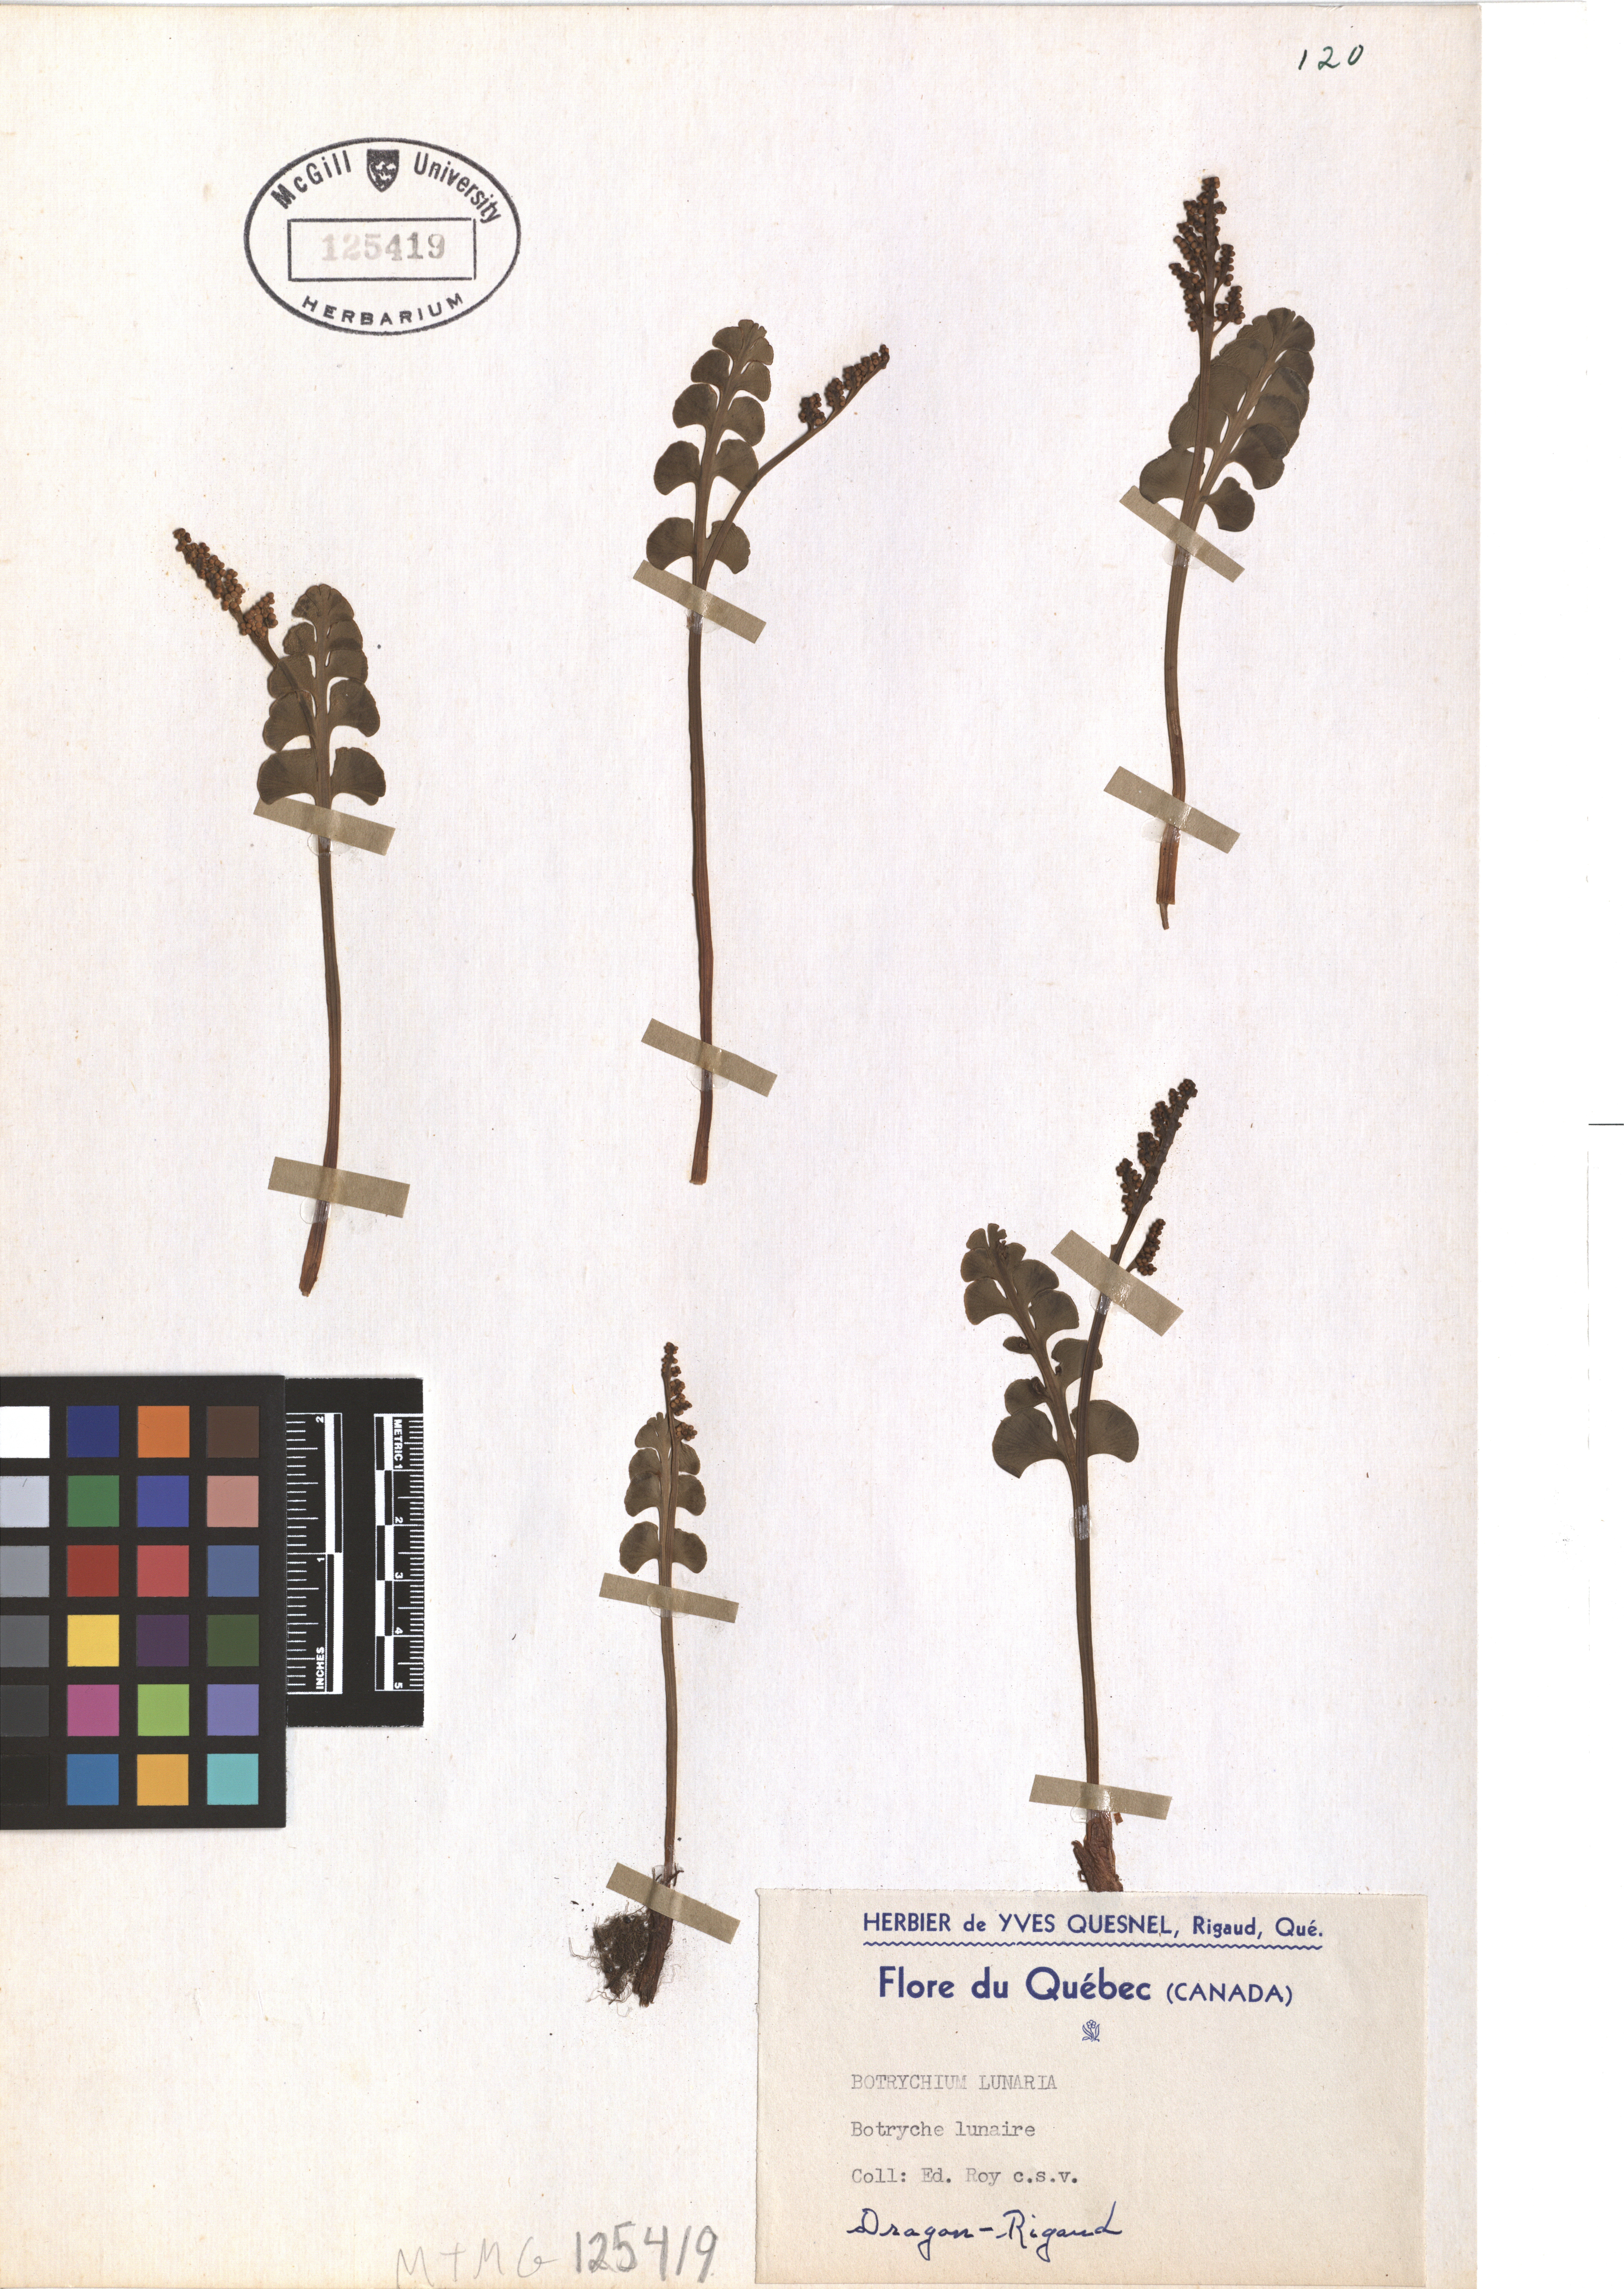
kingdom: Plantae
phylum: Tracheophyta
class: Polypodiopsida
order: Ophioglossales
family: Ophioglossaceae
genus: Botrychium
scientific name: Botrychium lunaria
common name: Moonwort
